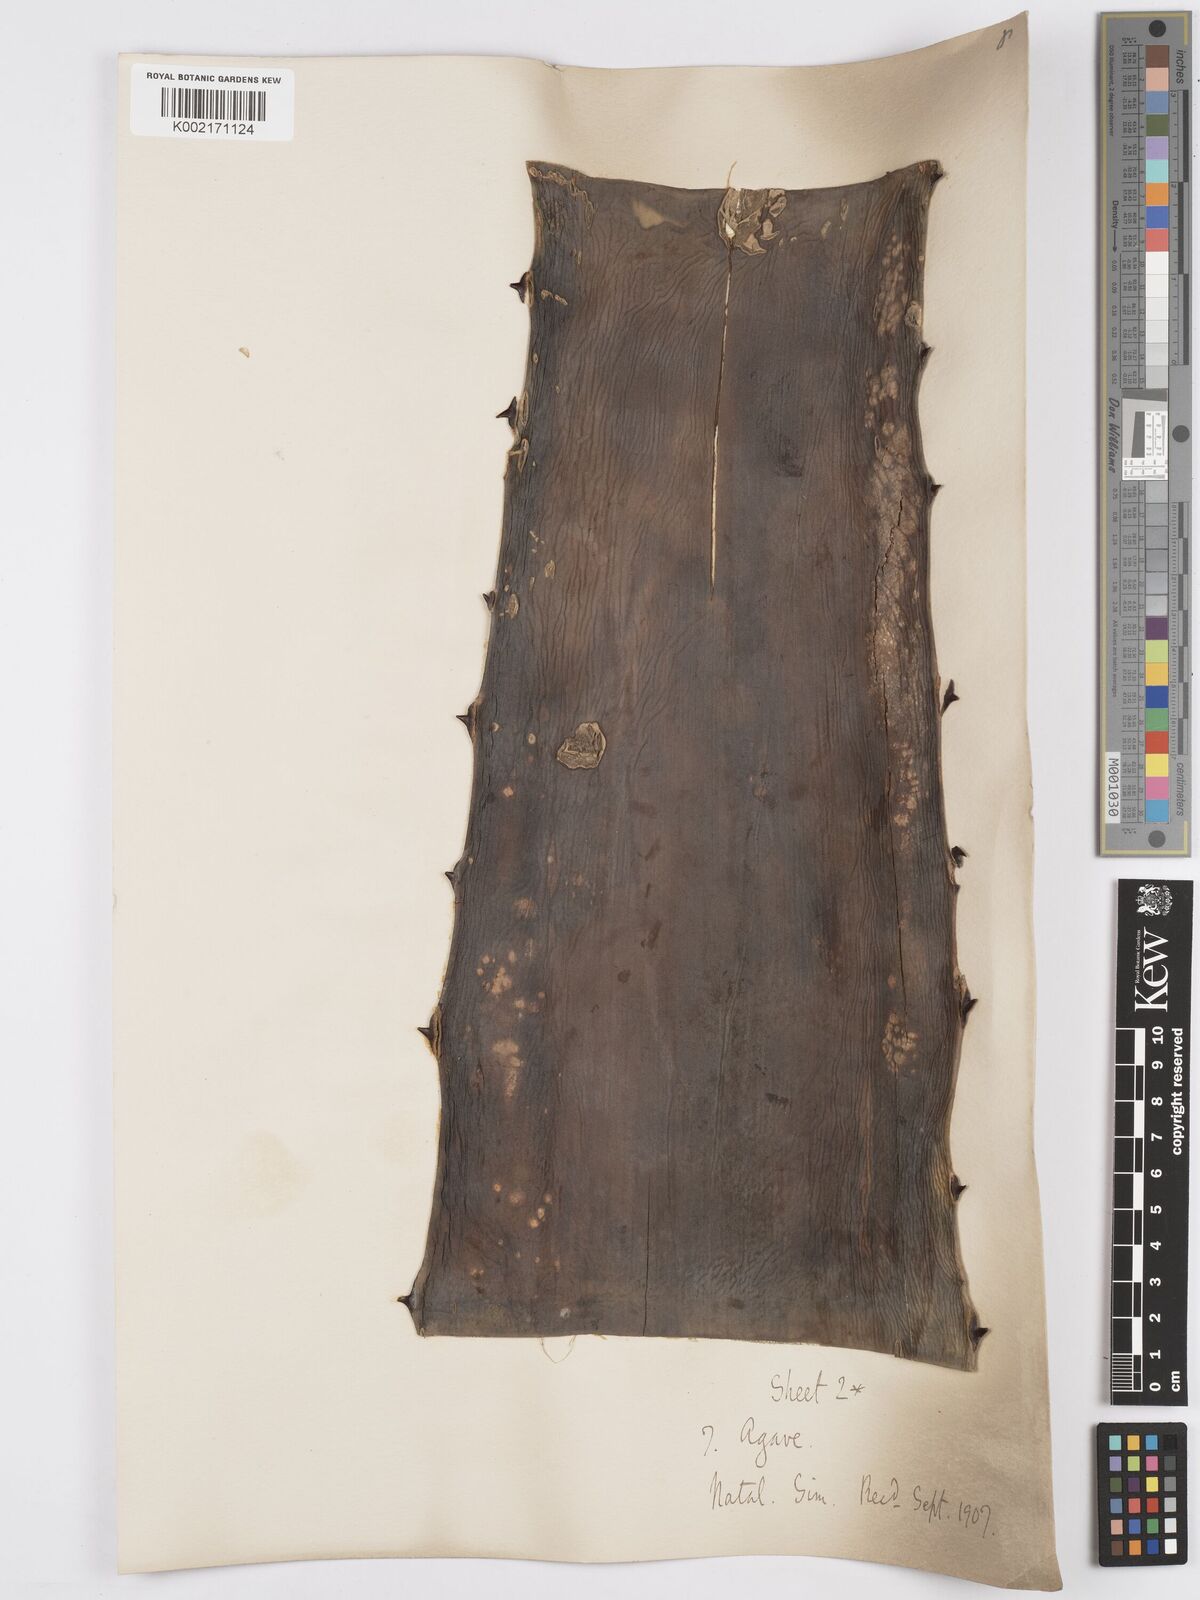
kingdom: Plantae
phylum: Tracheophyta
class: Liliopsida
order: Asparagales
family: Asparagaceae
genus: Agave
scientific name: Agave
